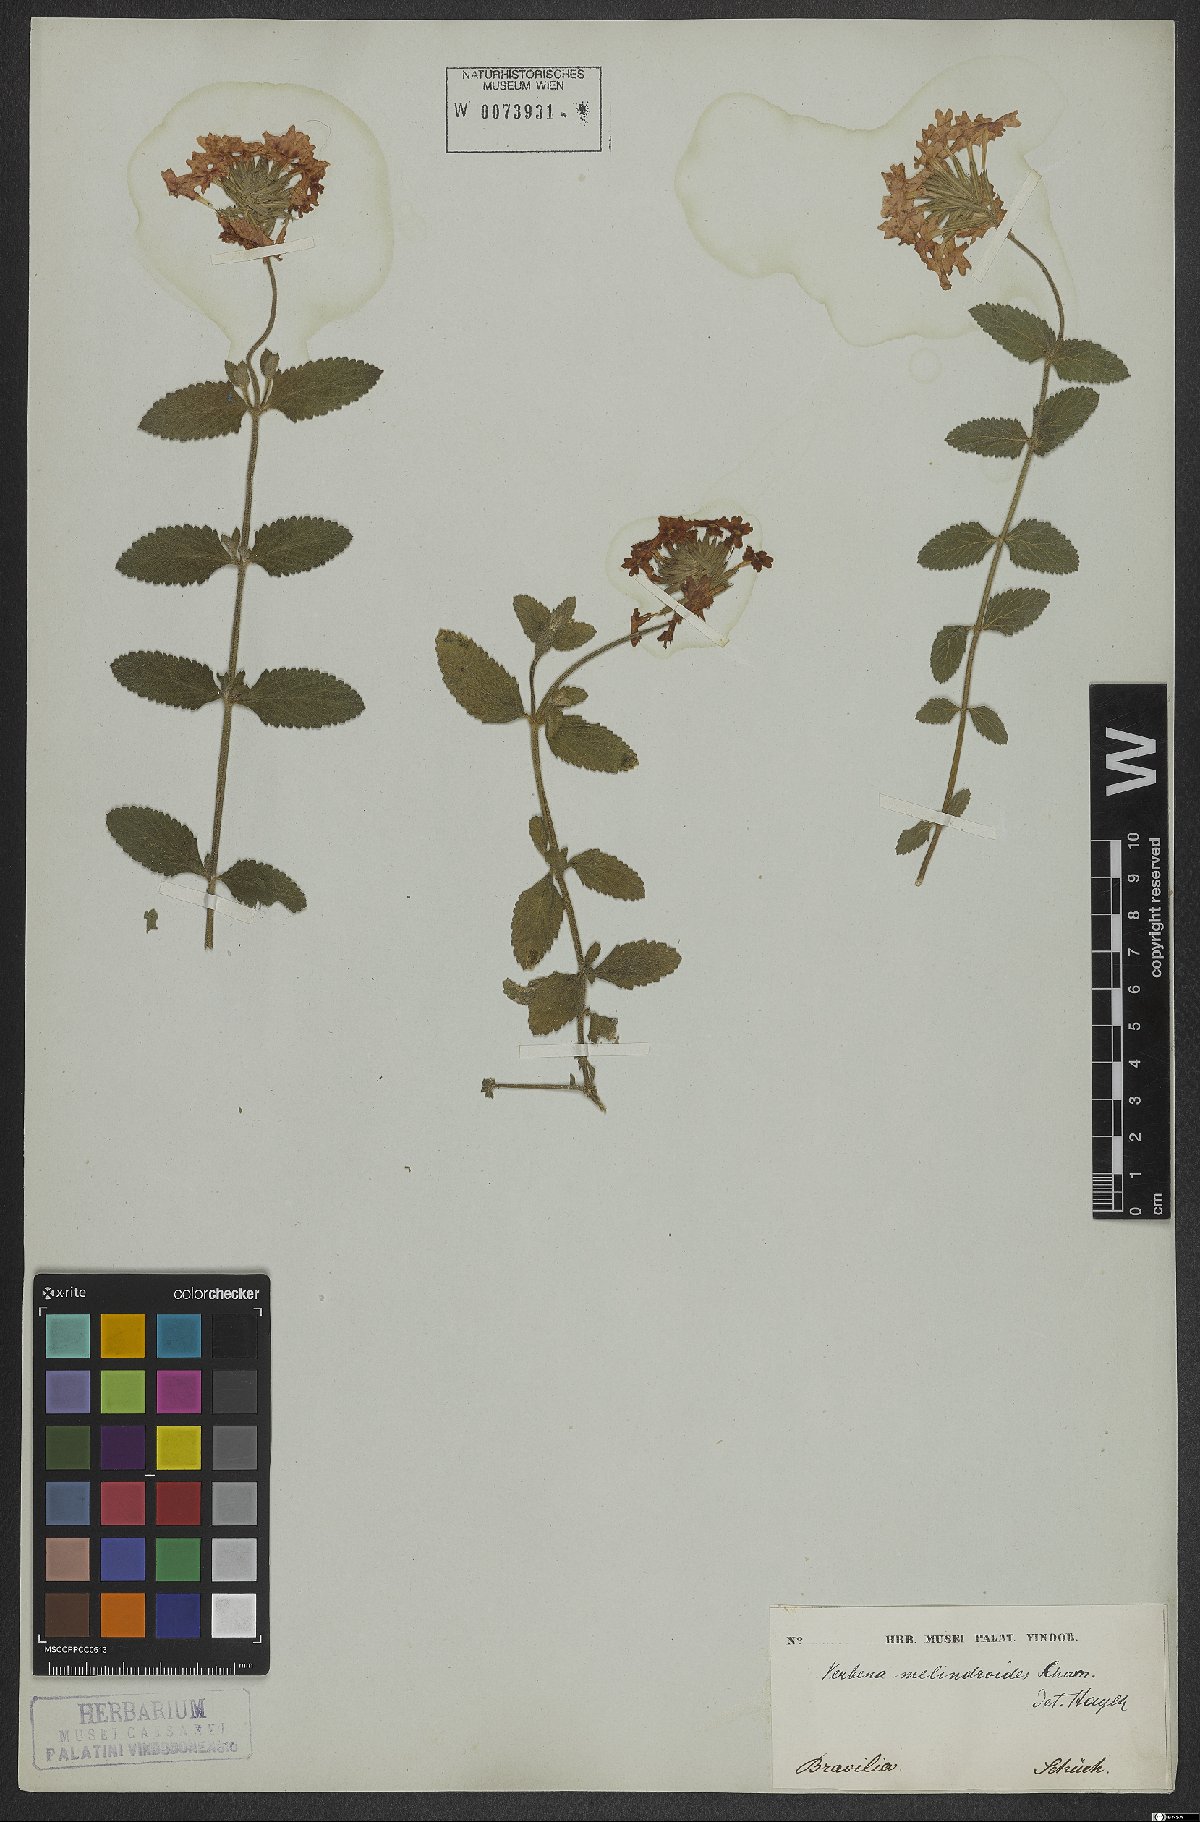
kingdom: Plantae
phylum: Tracheophyta
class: Magnoliopsida
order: Lamiales
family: Verbenaceae
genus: Verbena
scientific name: Verbena peruviana
